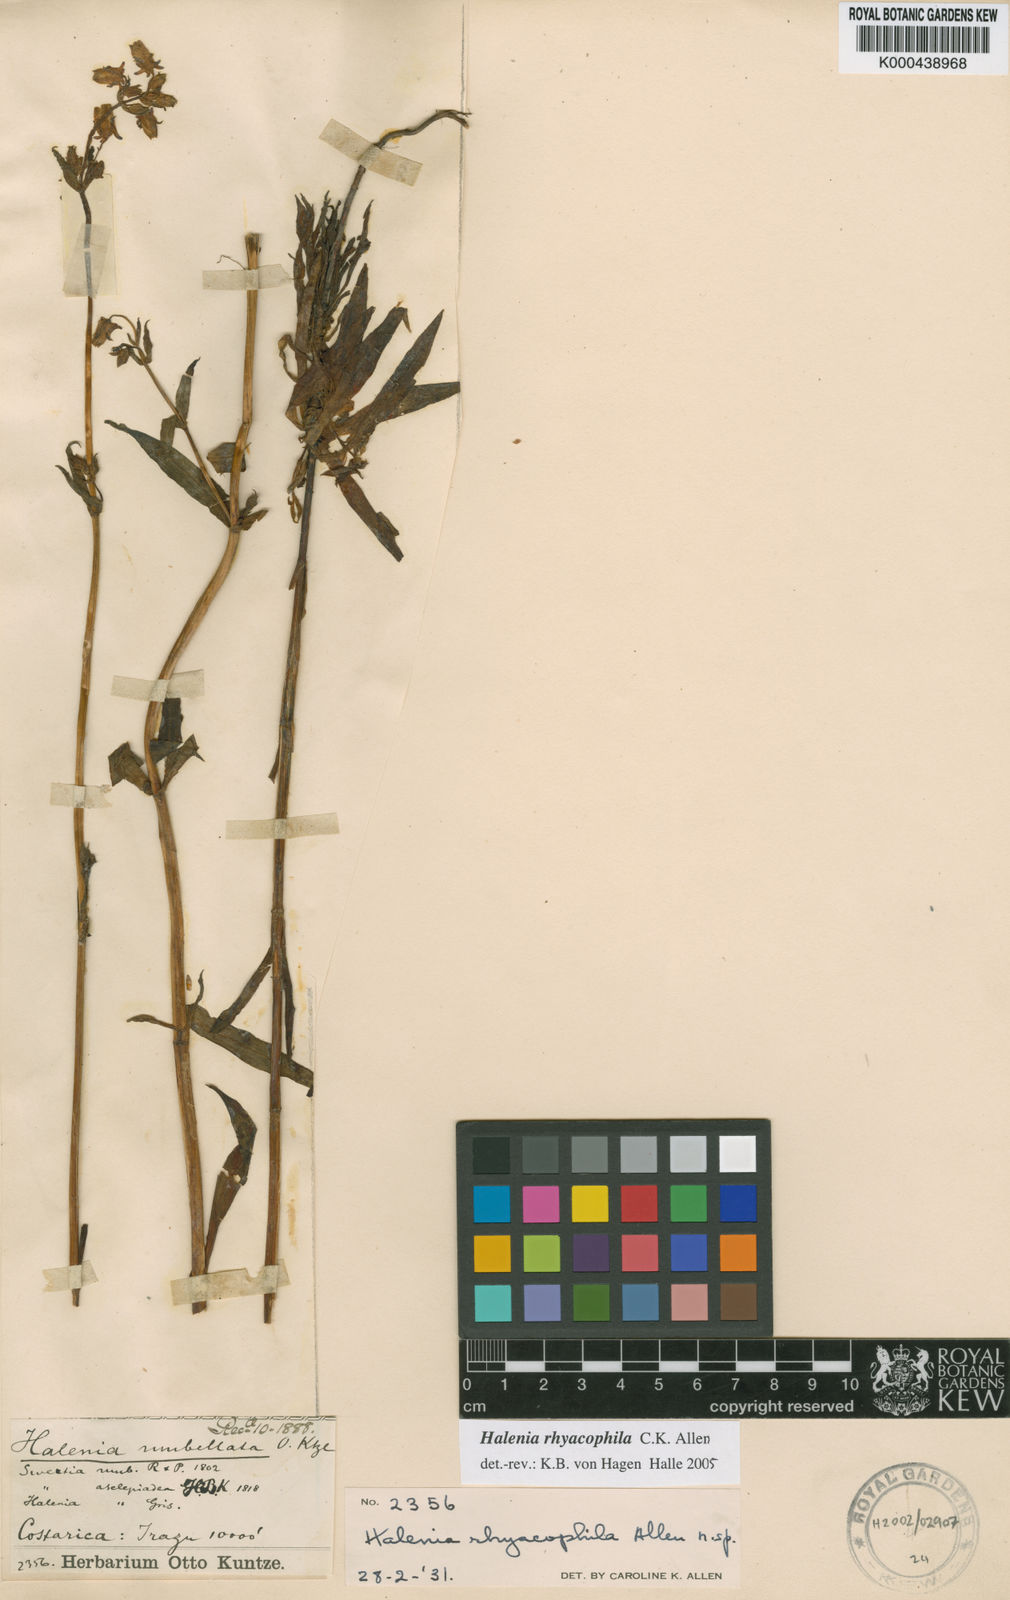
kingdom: Plantae
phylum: Tracheophyta
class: Magnoliopsida
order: Gentianales
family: Gentianaceae
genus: Halenia
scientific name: Halenia rhyacophila
